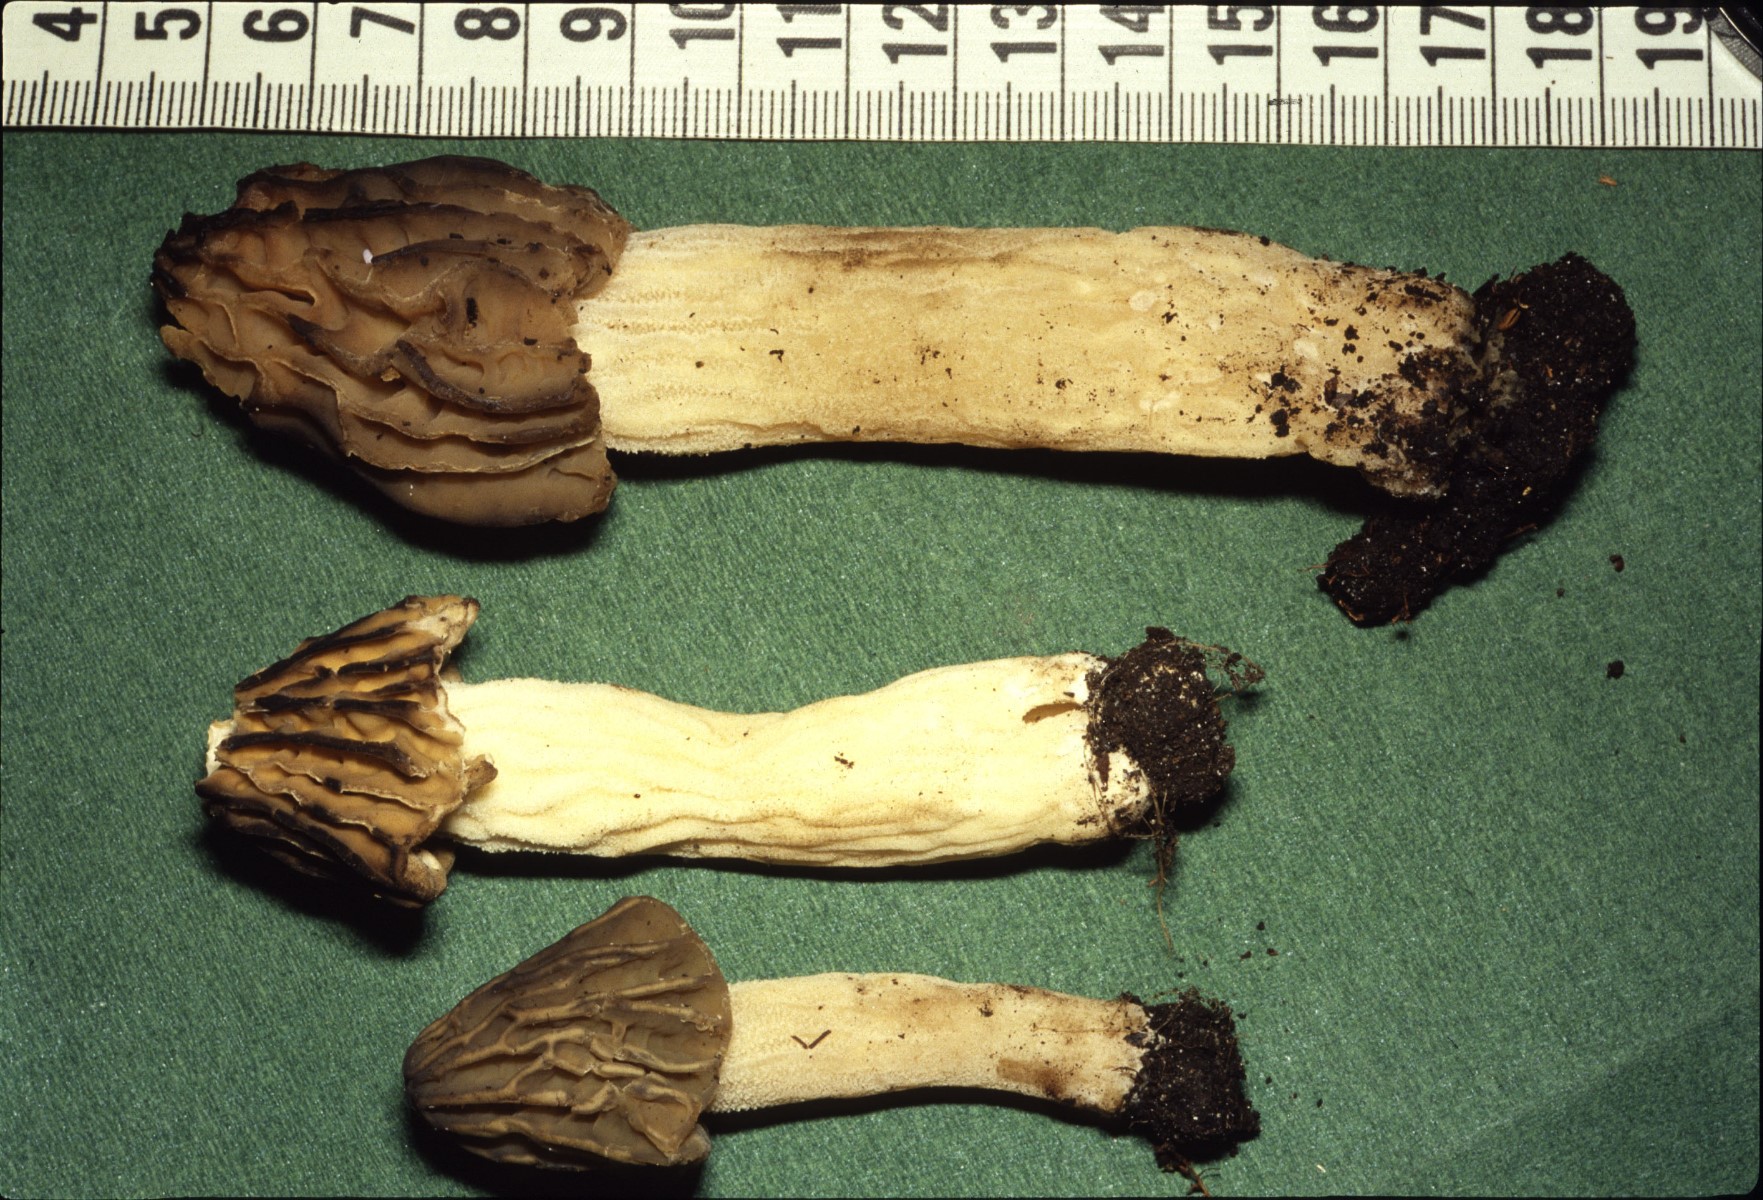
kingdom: Fungi
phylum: Ascomycota
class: Pezizomycetes
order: Pezizales
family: Morchellaceae
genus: Morchella
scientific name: Morchella semilibera
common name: hætte-morkel
